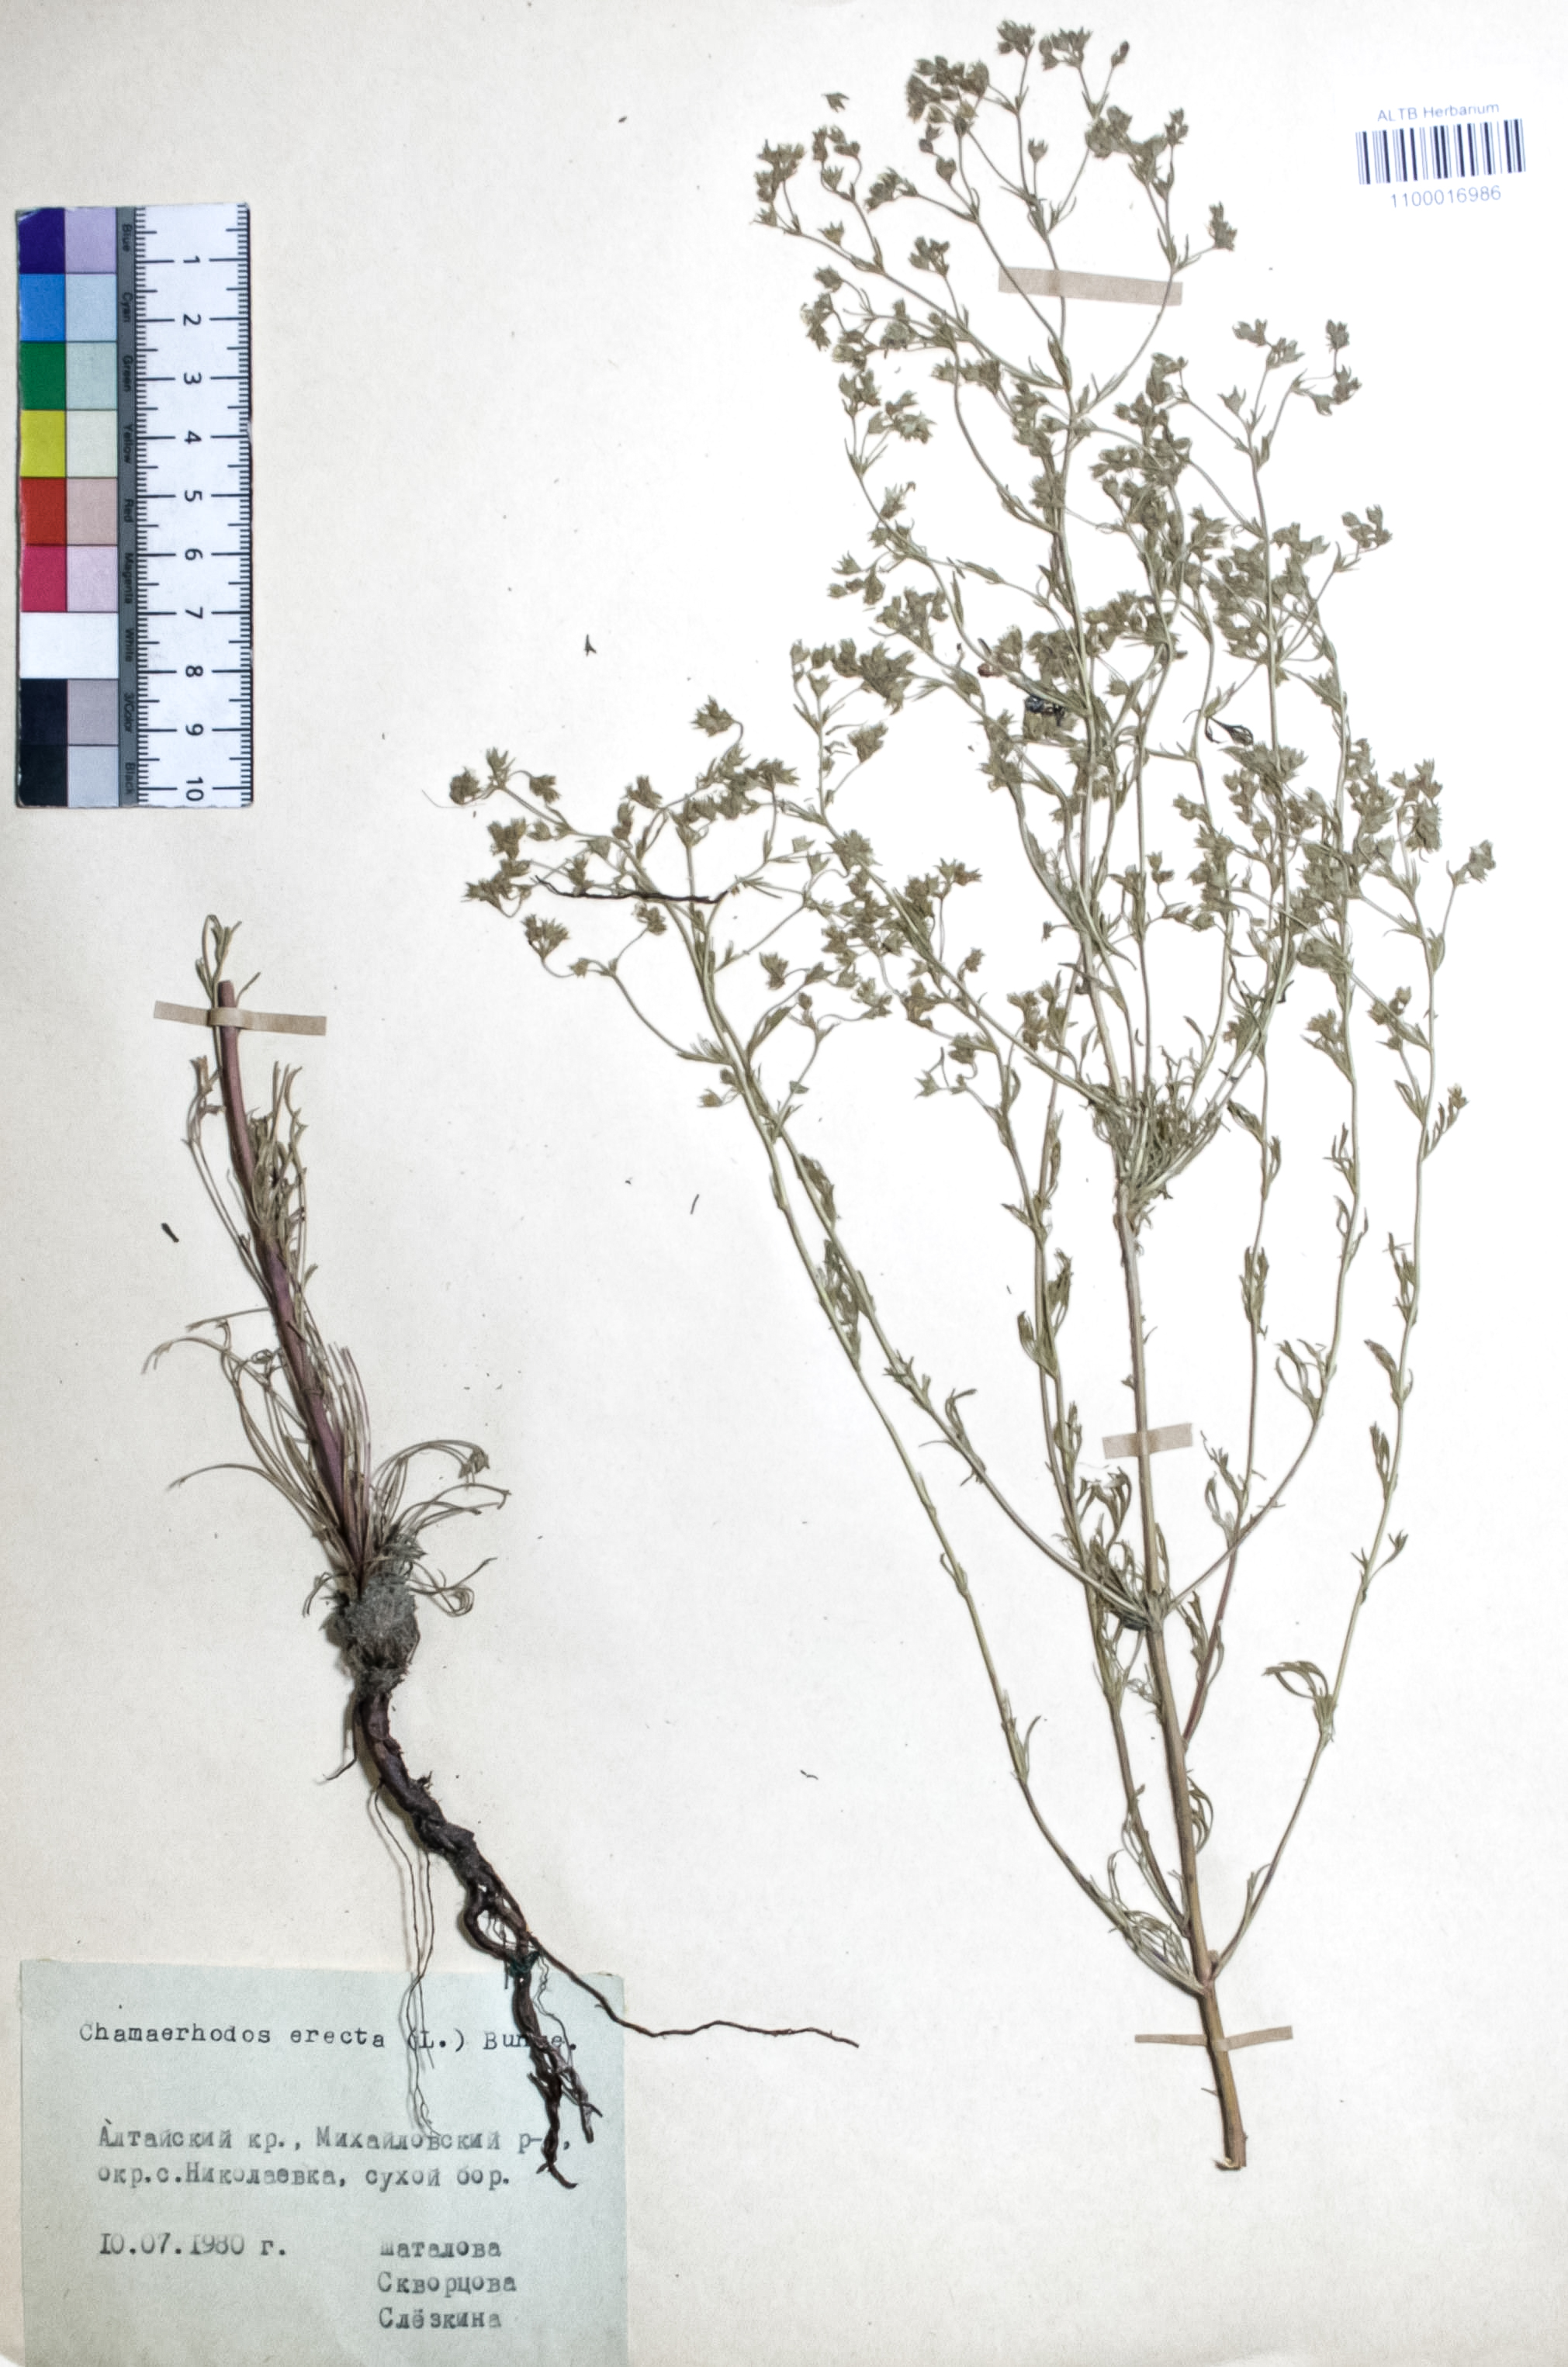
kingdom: Plantae
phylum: Tracheophyta
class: Magnoliopsida
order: Rosales
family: Rosaceae
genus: Chamaerhodos
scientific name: Chamaerhodos erecta
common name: American chamaerhodos
